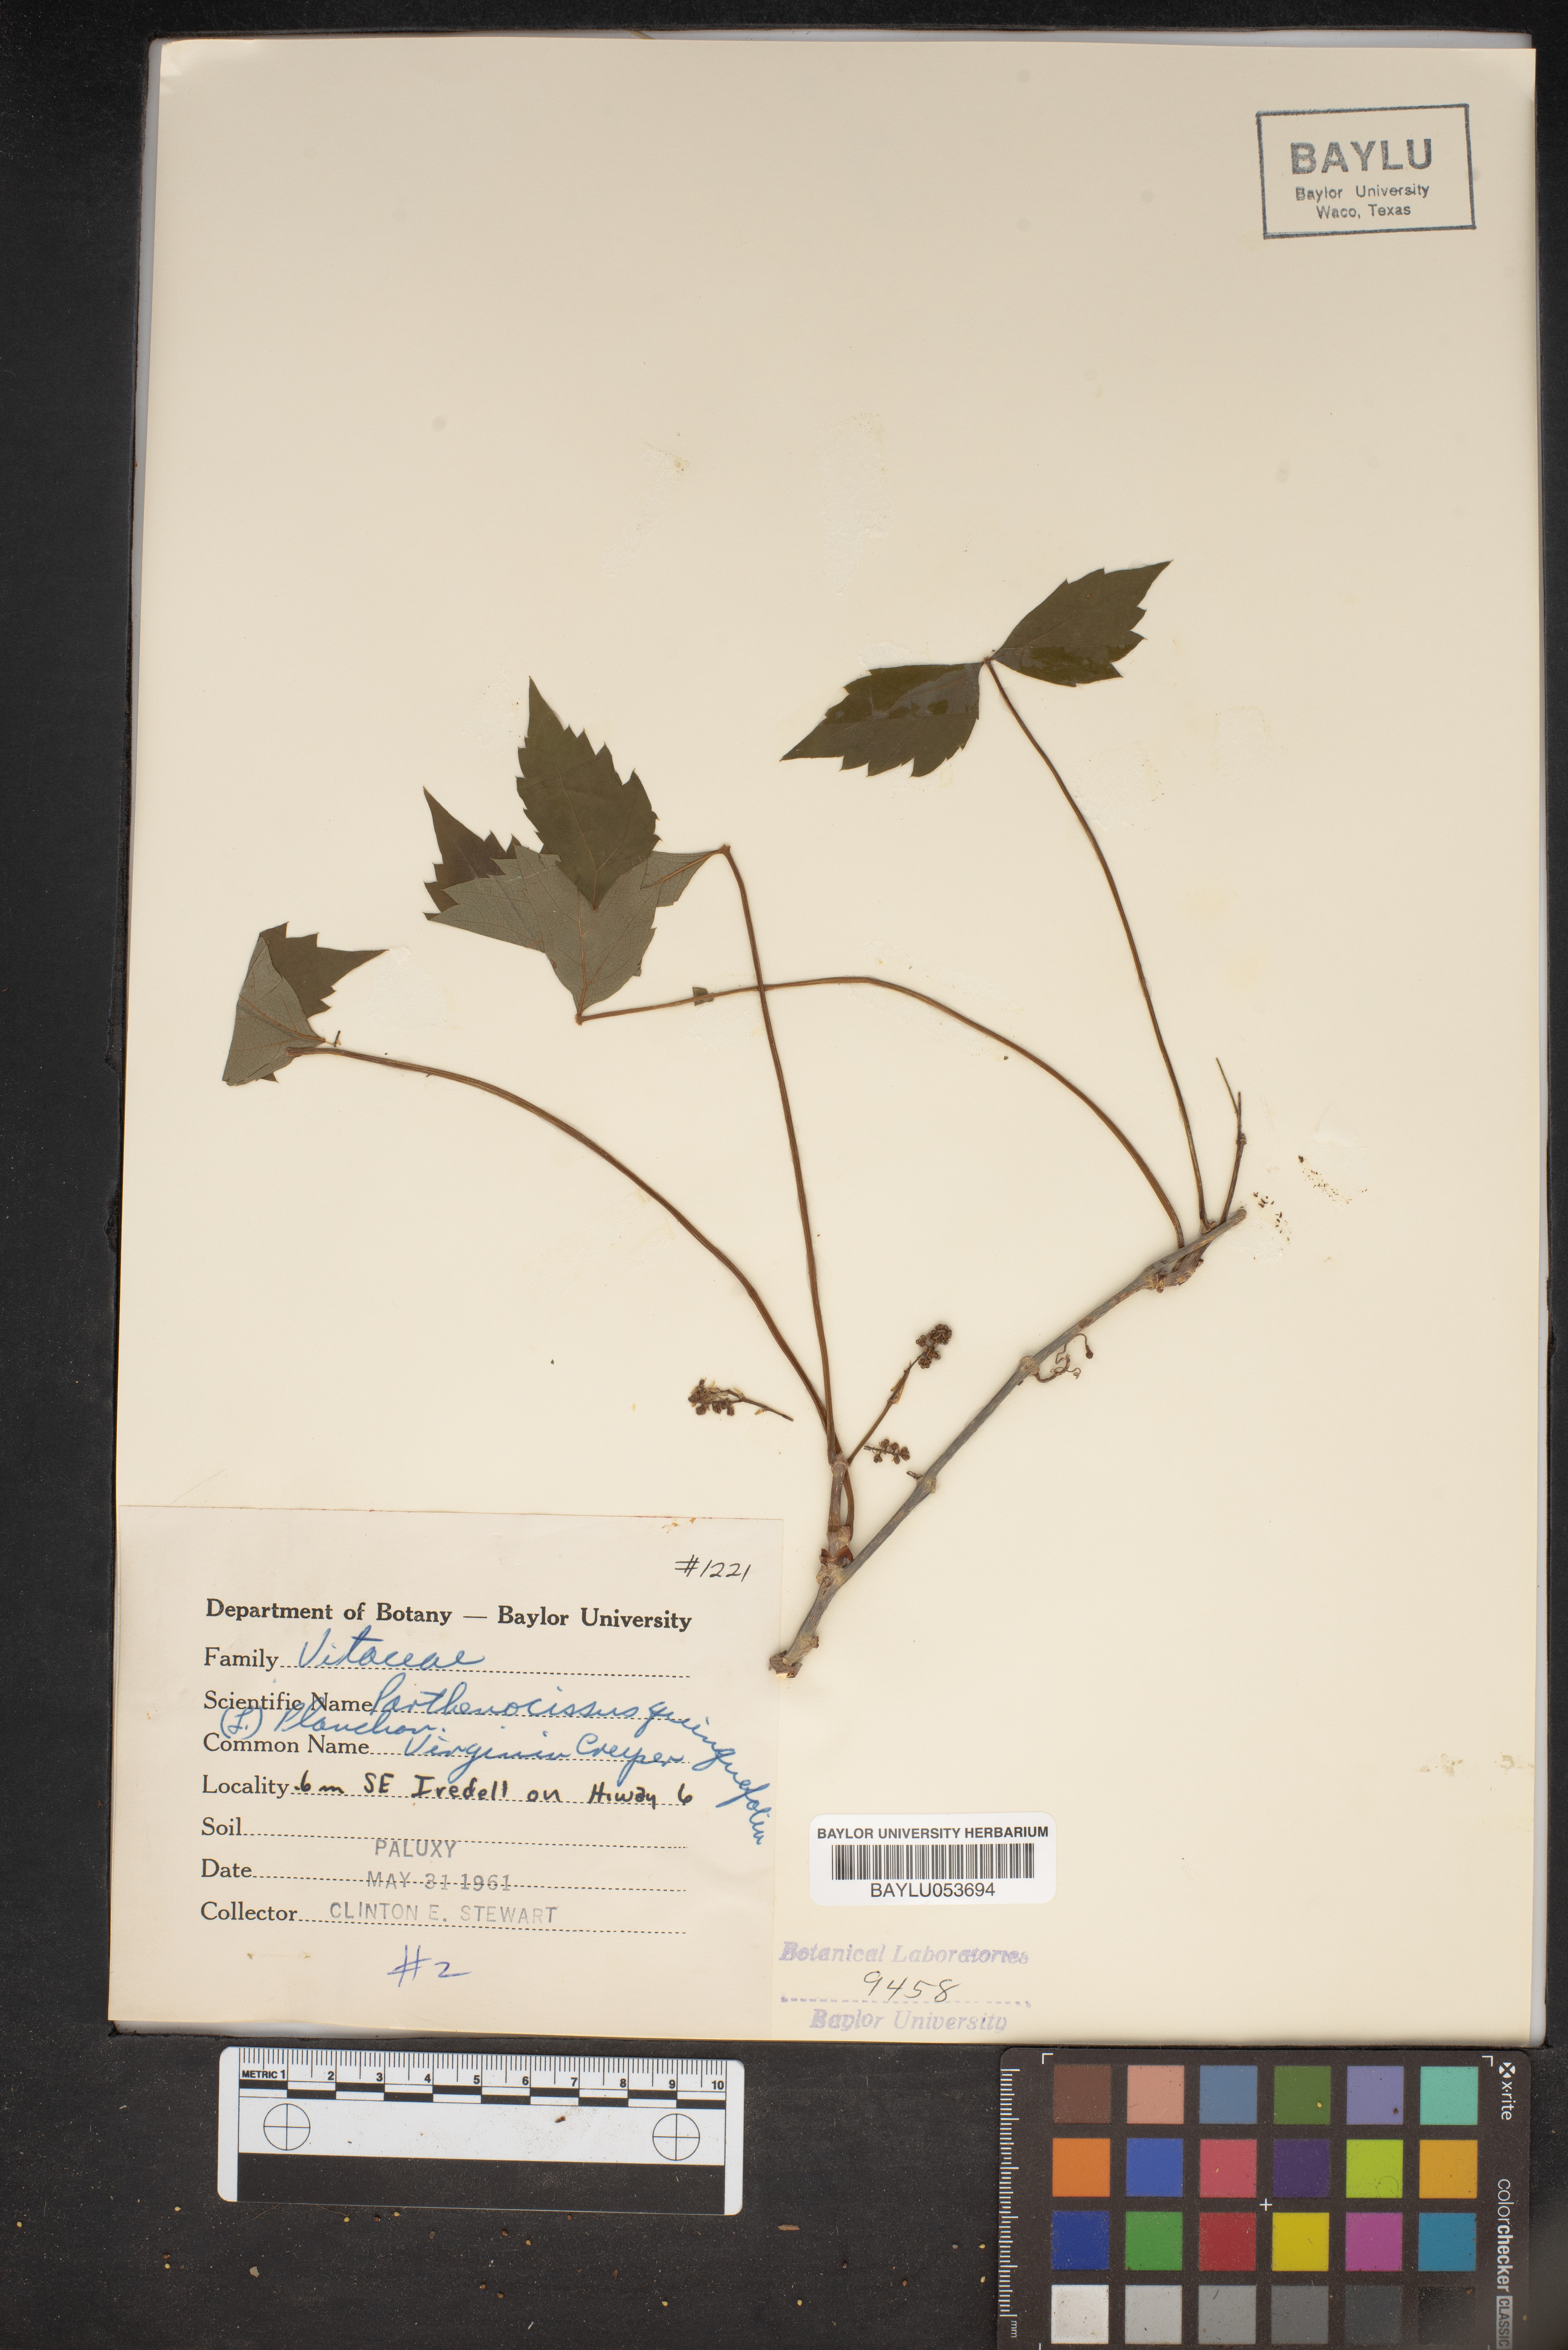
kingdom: Plantae
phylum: Tracheophyta
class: Magnoliopsida
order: Vitales
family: Vitaceae
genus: Parthenocissus
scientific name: Parthenocissus quinquefolia
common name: Virginia-creeper
